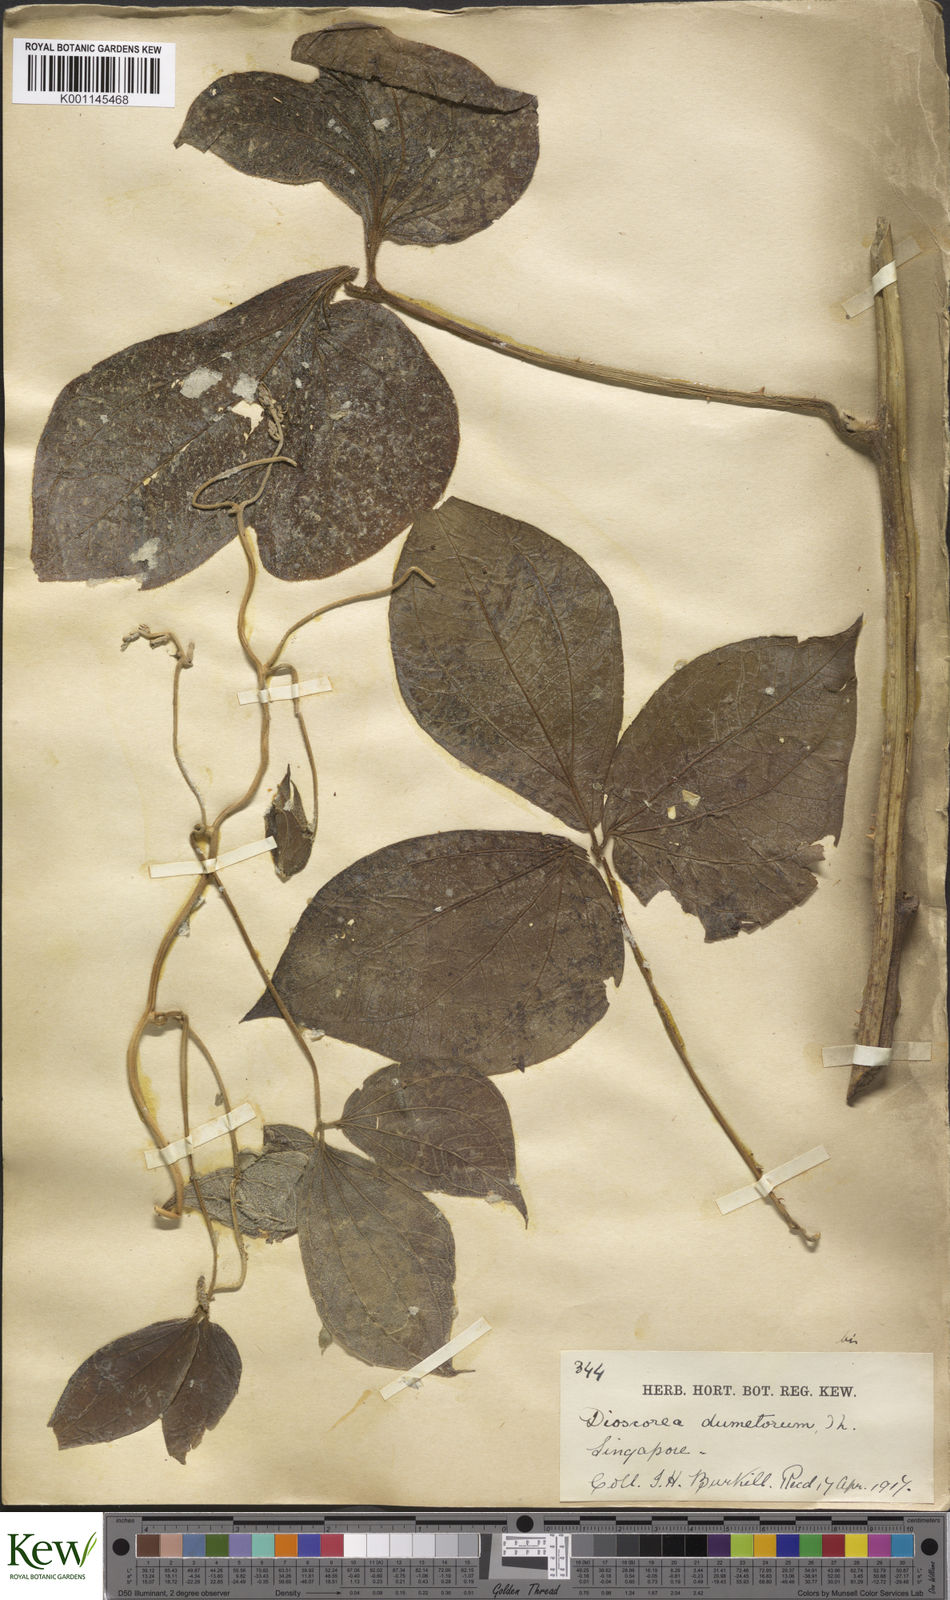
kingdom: Plantae
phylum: Tracheophyta
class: Liliopsida
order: Dioscoreales
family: Dioscoreaceae
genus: Dioscorea
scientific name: Dioscorea dumetorum
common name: African bitter yam
